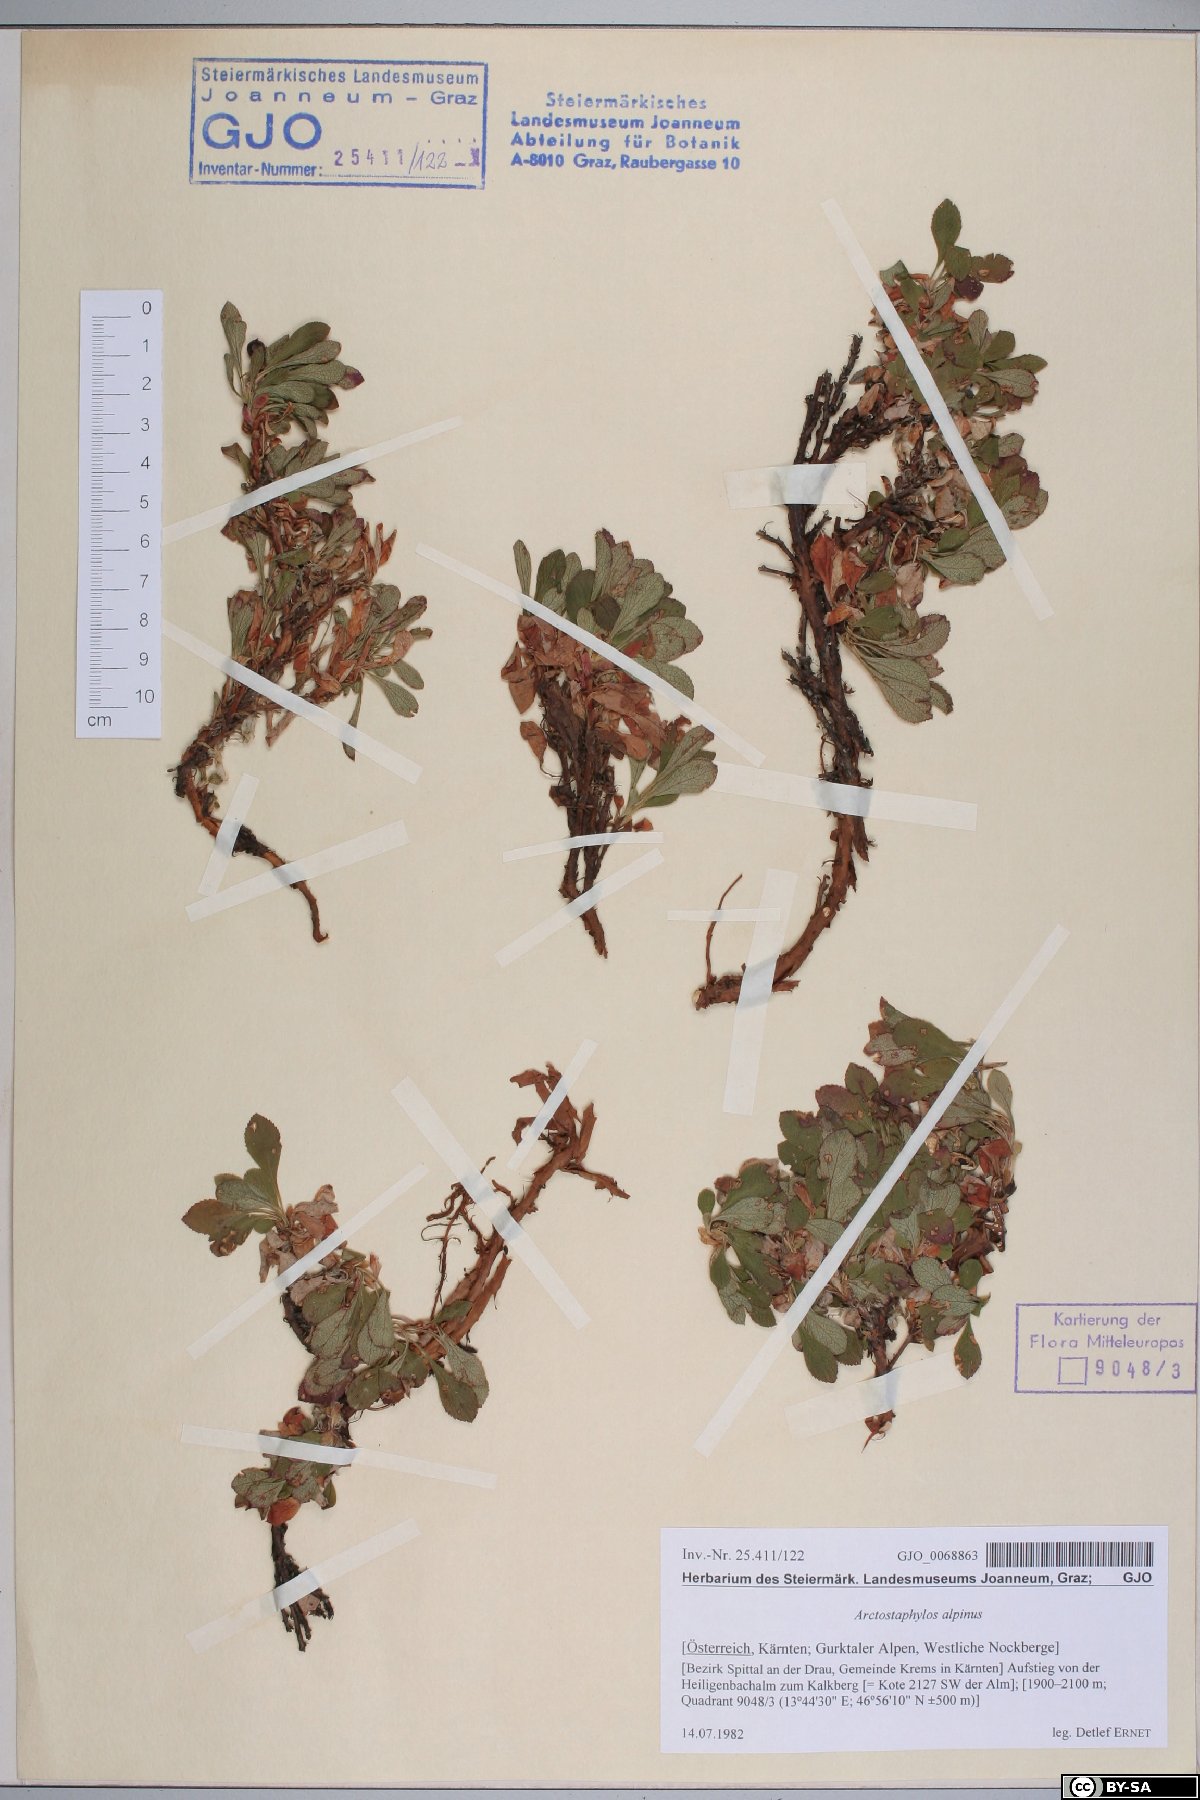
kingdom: Plantae
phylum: Tracheophyta
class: Magnoliopsida
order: Ericales
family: Ericaceae
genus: Arctostaphylos
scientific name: Arctostaphylos alpinus
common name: Alpine bearberry
